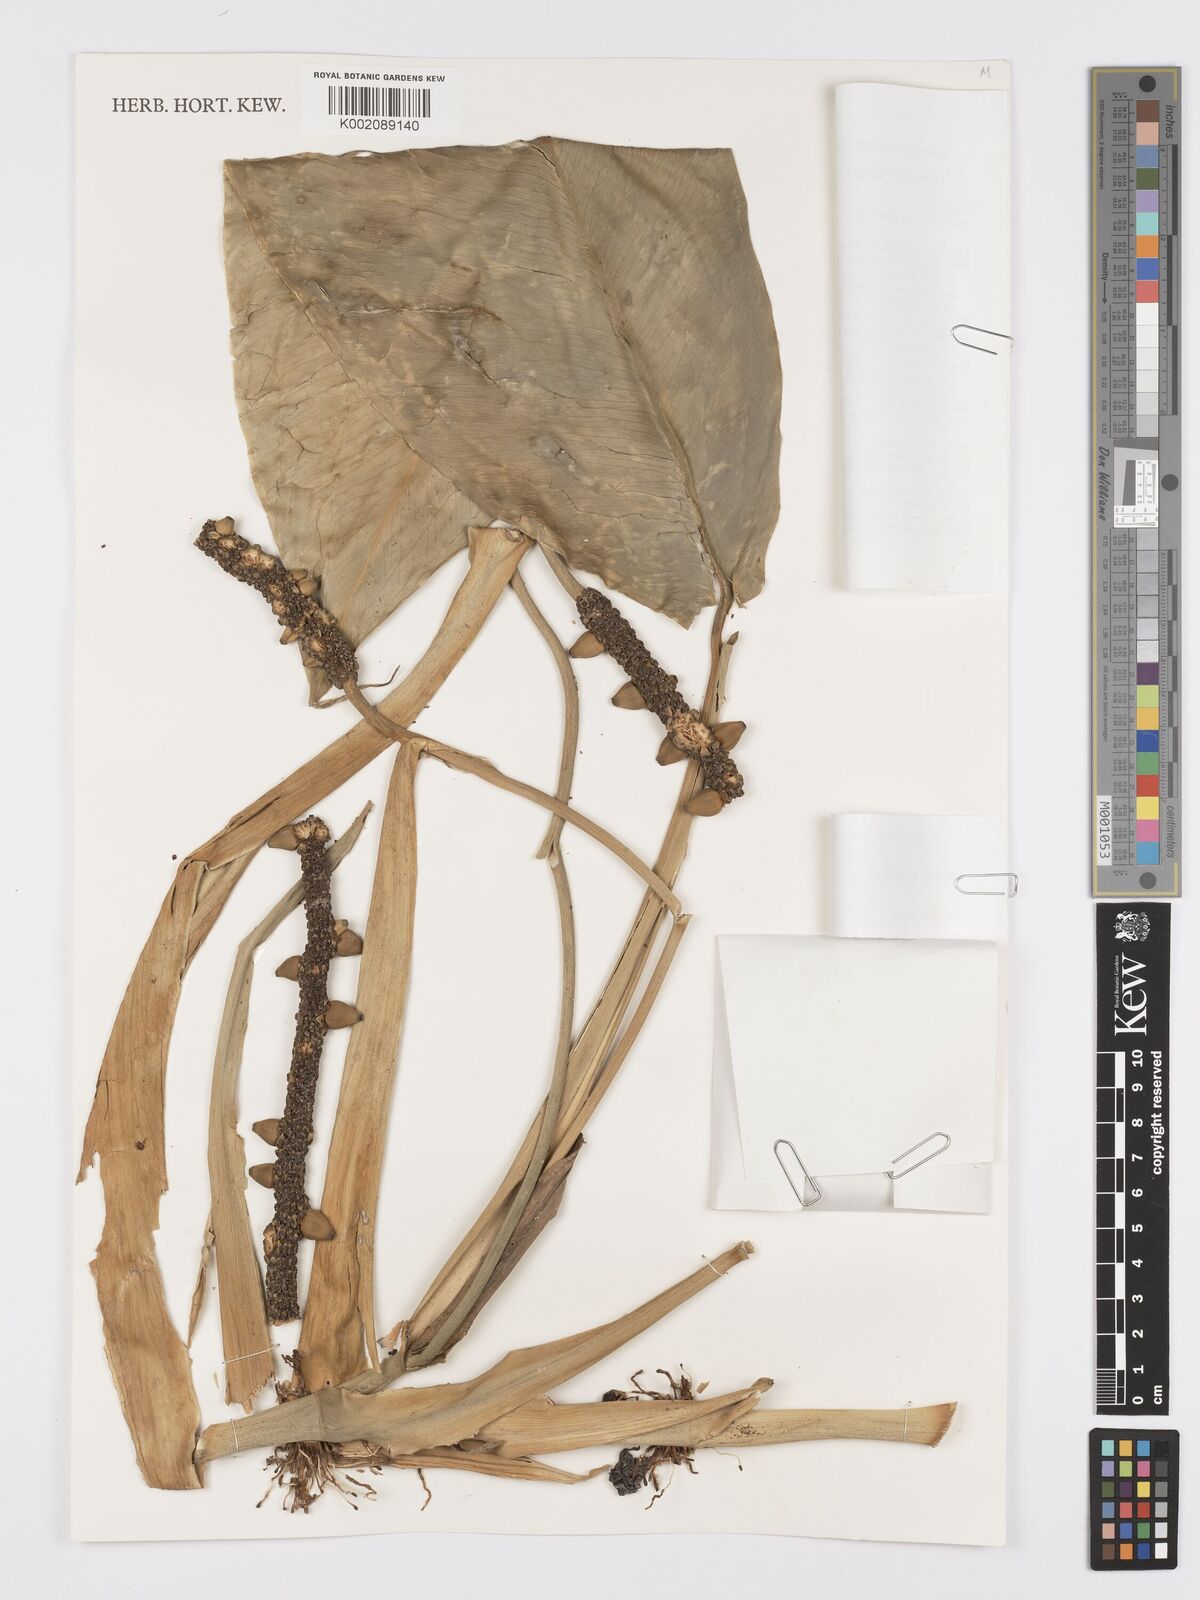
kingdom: Plantae
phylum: Tracheophyta
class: Liliopsida
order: Alismatales
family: Araceae
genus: Pothos
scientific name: Pothos tener
